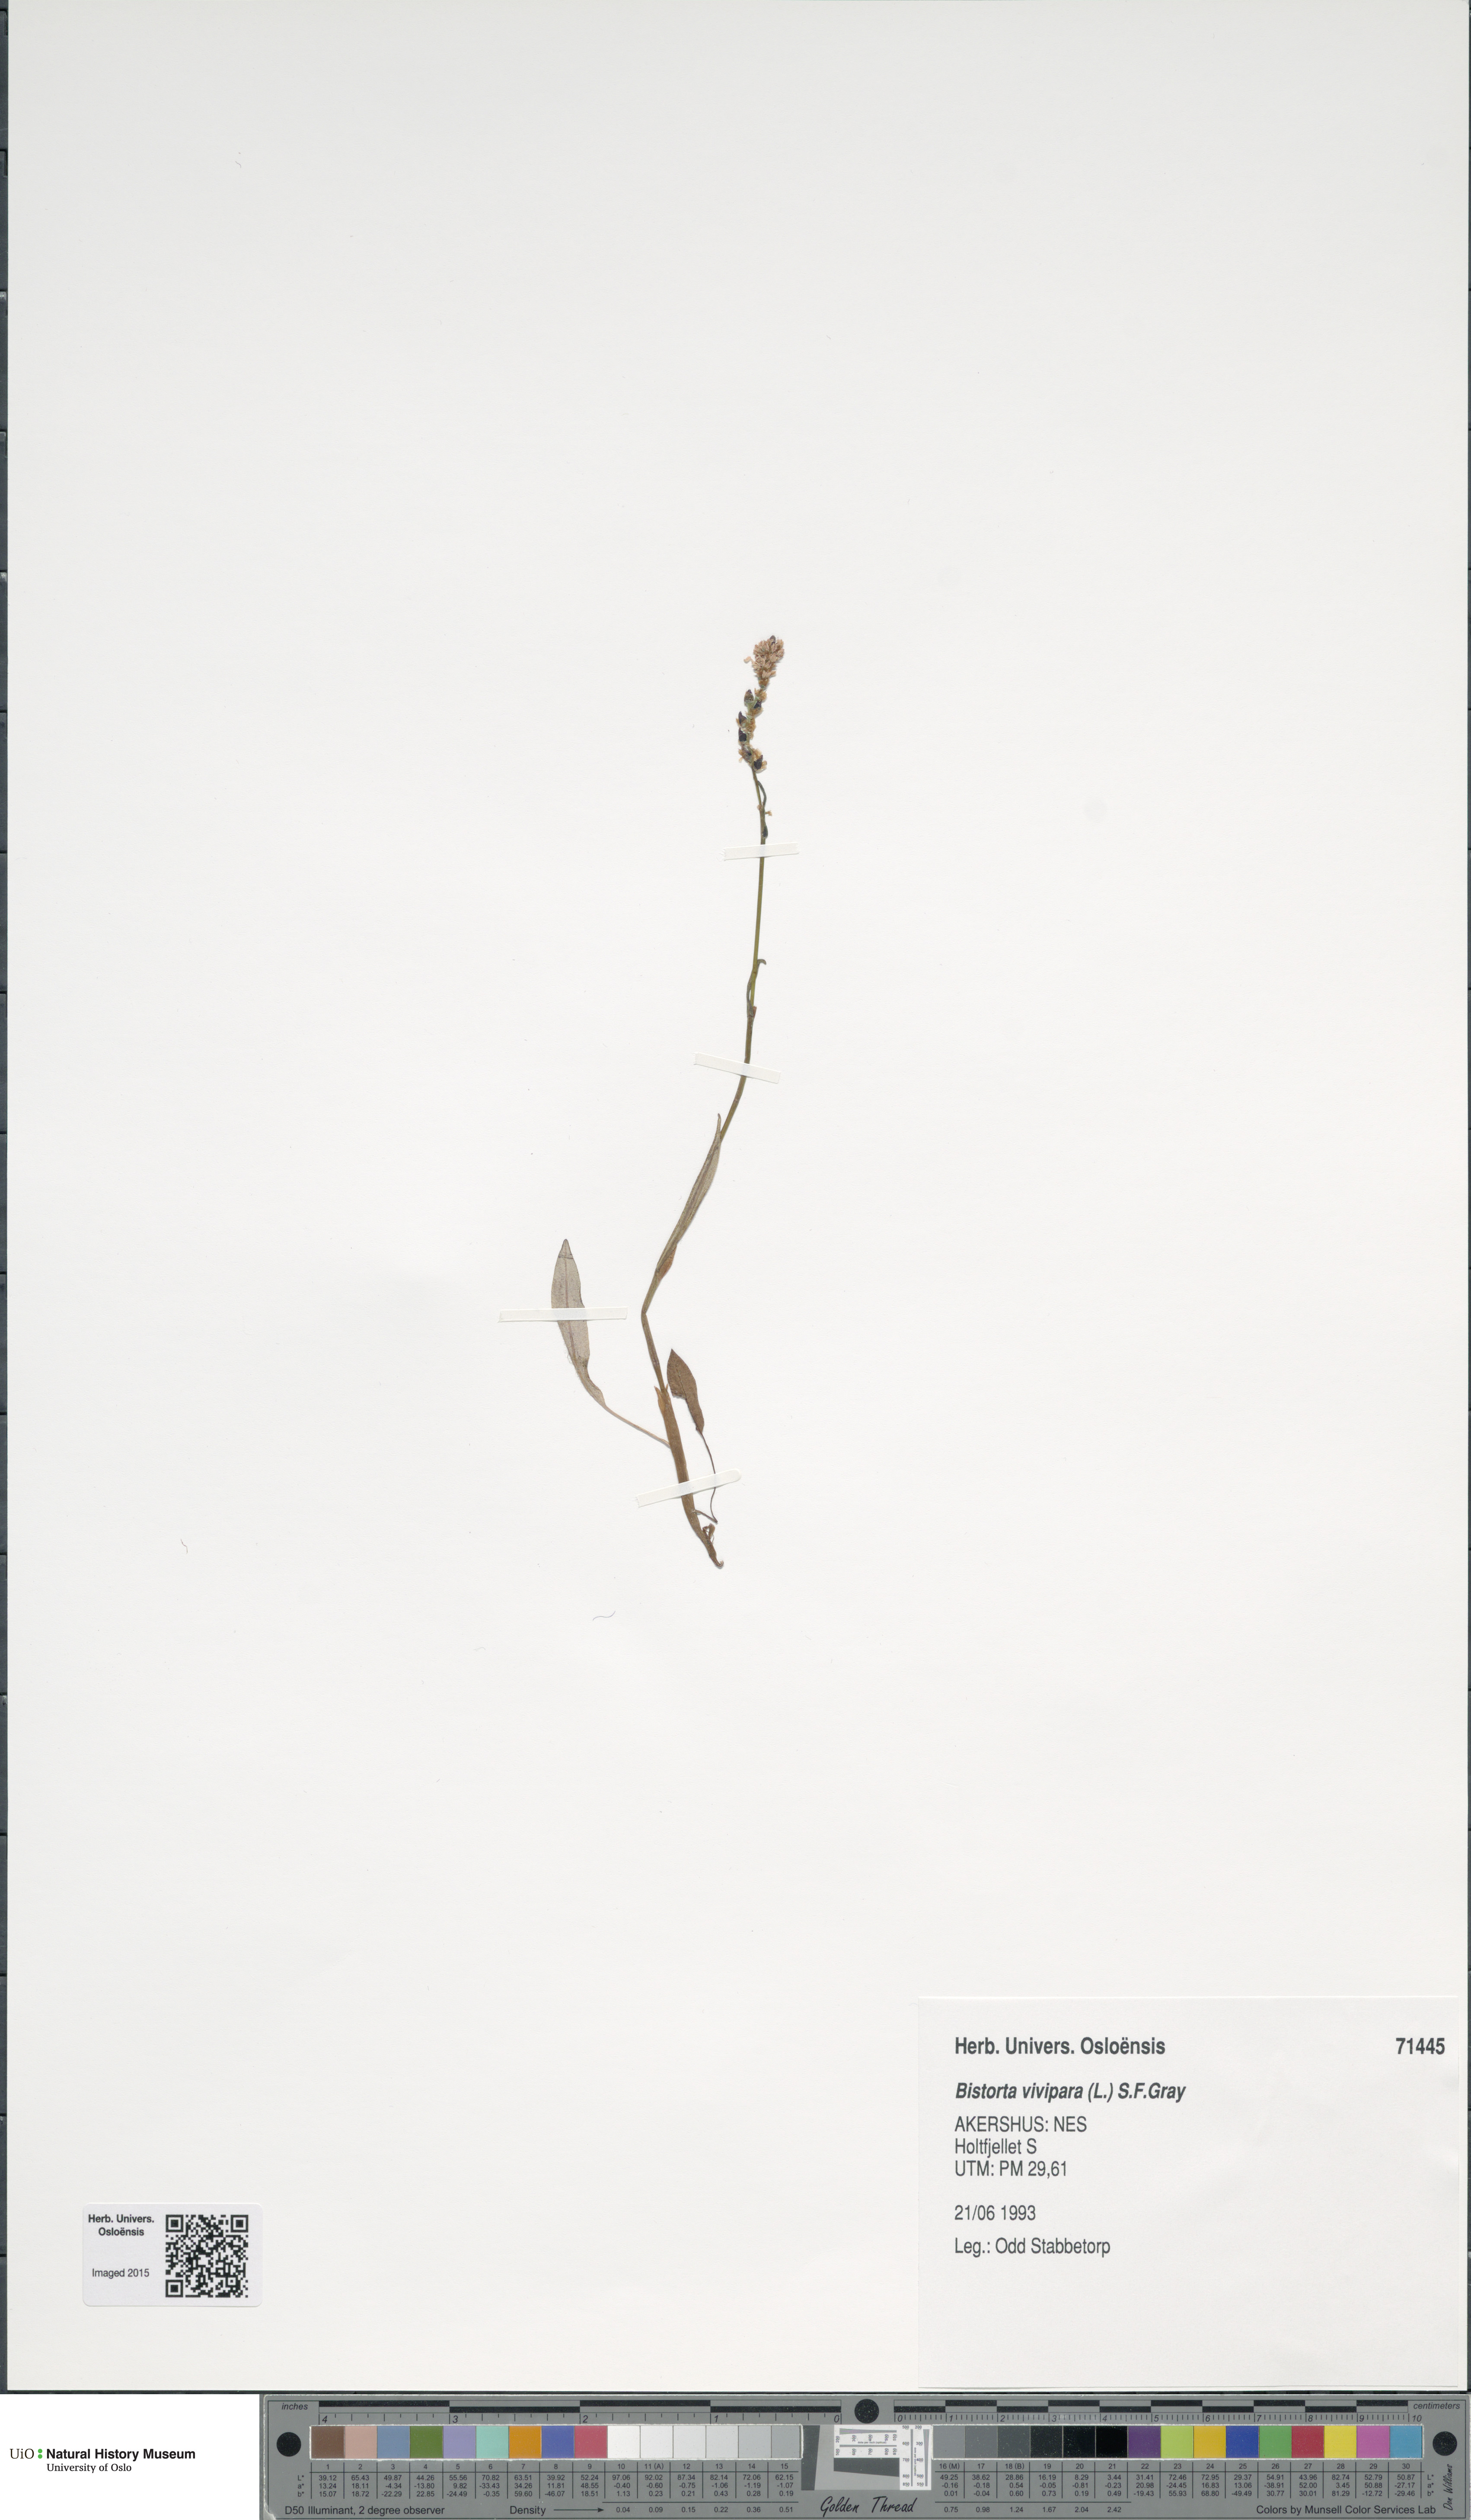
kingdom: Plantae
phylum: Tracheophyta
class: Magnoliopsida
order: Caryophyllales
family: Polygonaceae
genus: Bistorta
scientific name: Bistorta vivipara
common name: Alpine bistort
